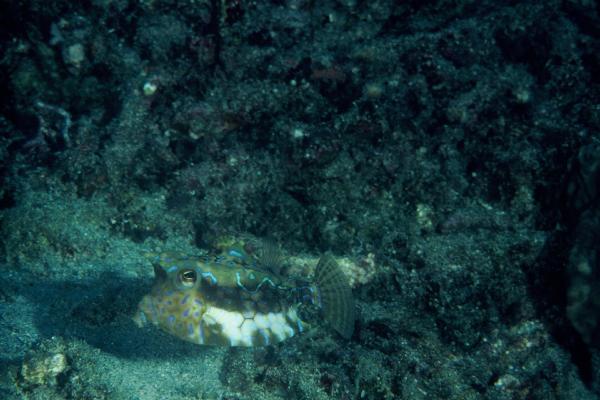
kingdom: Animalia
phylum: Chordata
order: Tetraodontiformes
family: Ostraciidae
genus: Lactoria
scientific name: Lactoria fornasini
